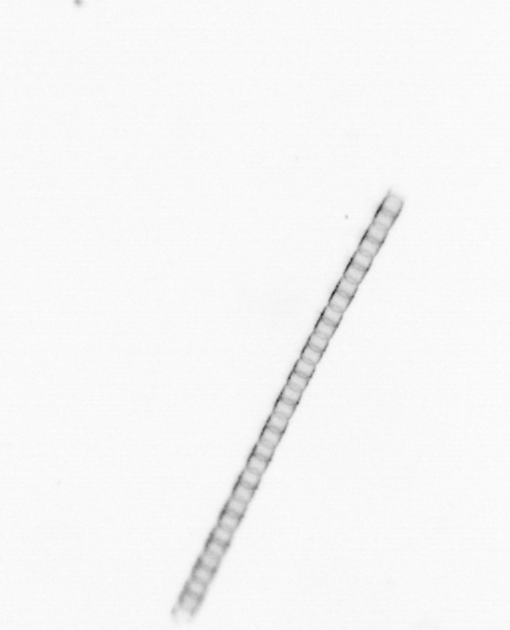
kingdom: Chromista
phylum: Ochrophyta
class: Bacillariophyceae
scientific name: Bacillariophyceae
